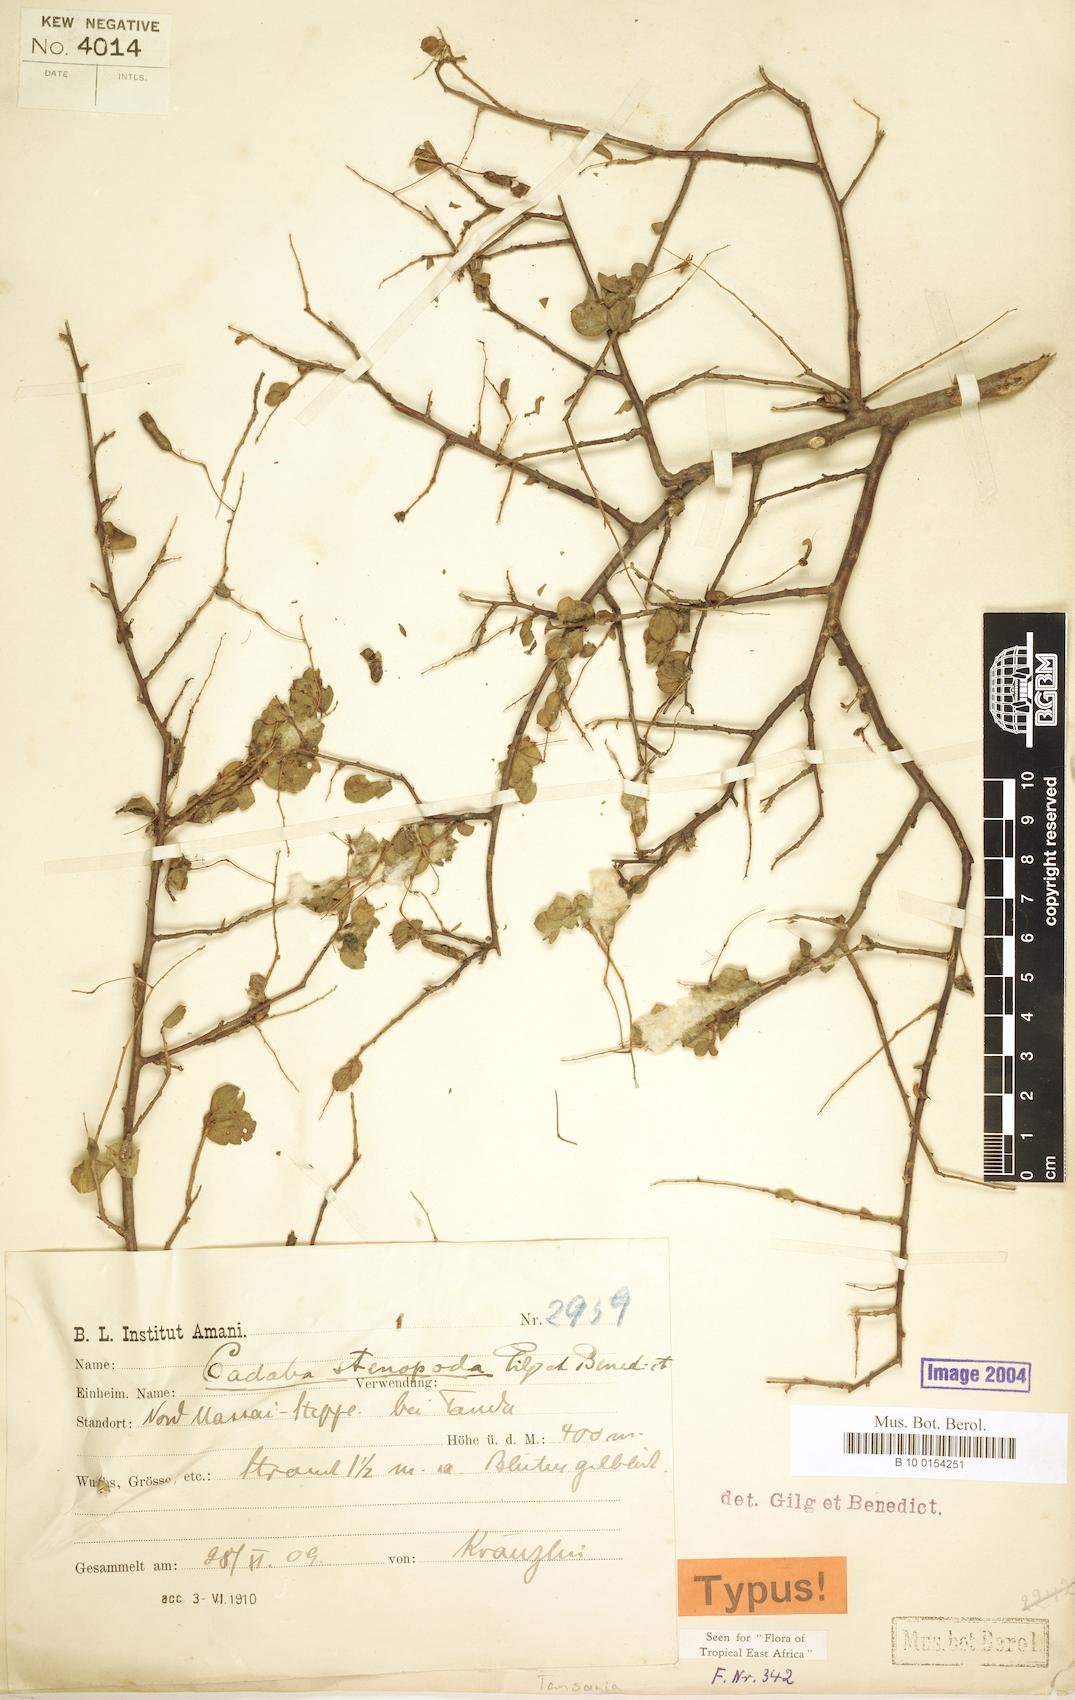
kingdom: Plantae
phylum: Tracheophyta
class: Magnoliopsida
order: Brassicales
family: Capparaceae
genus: Cadaba
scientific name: Cadaba stenopoda
